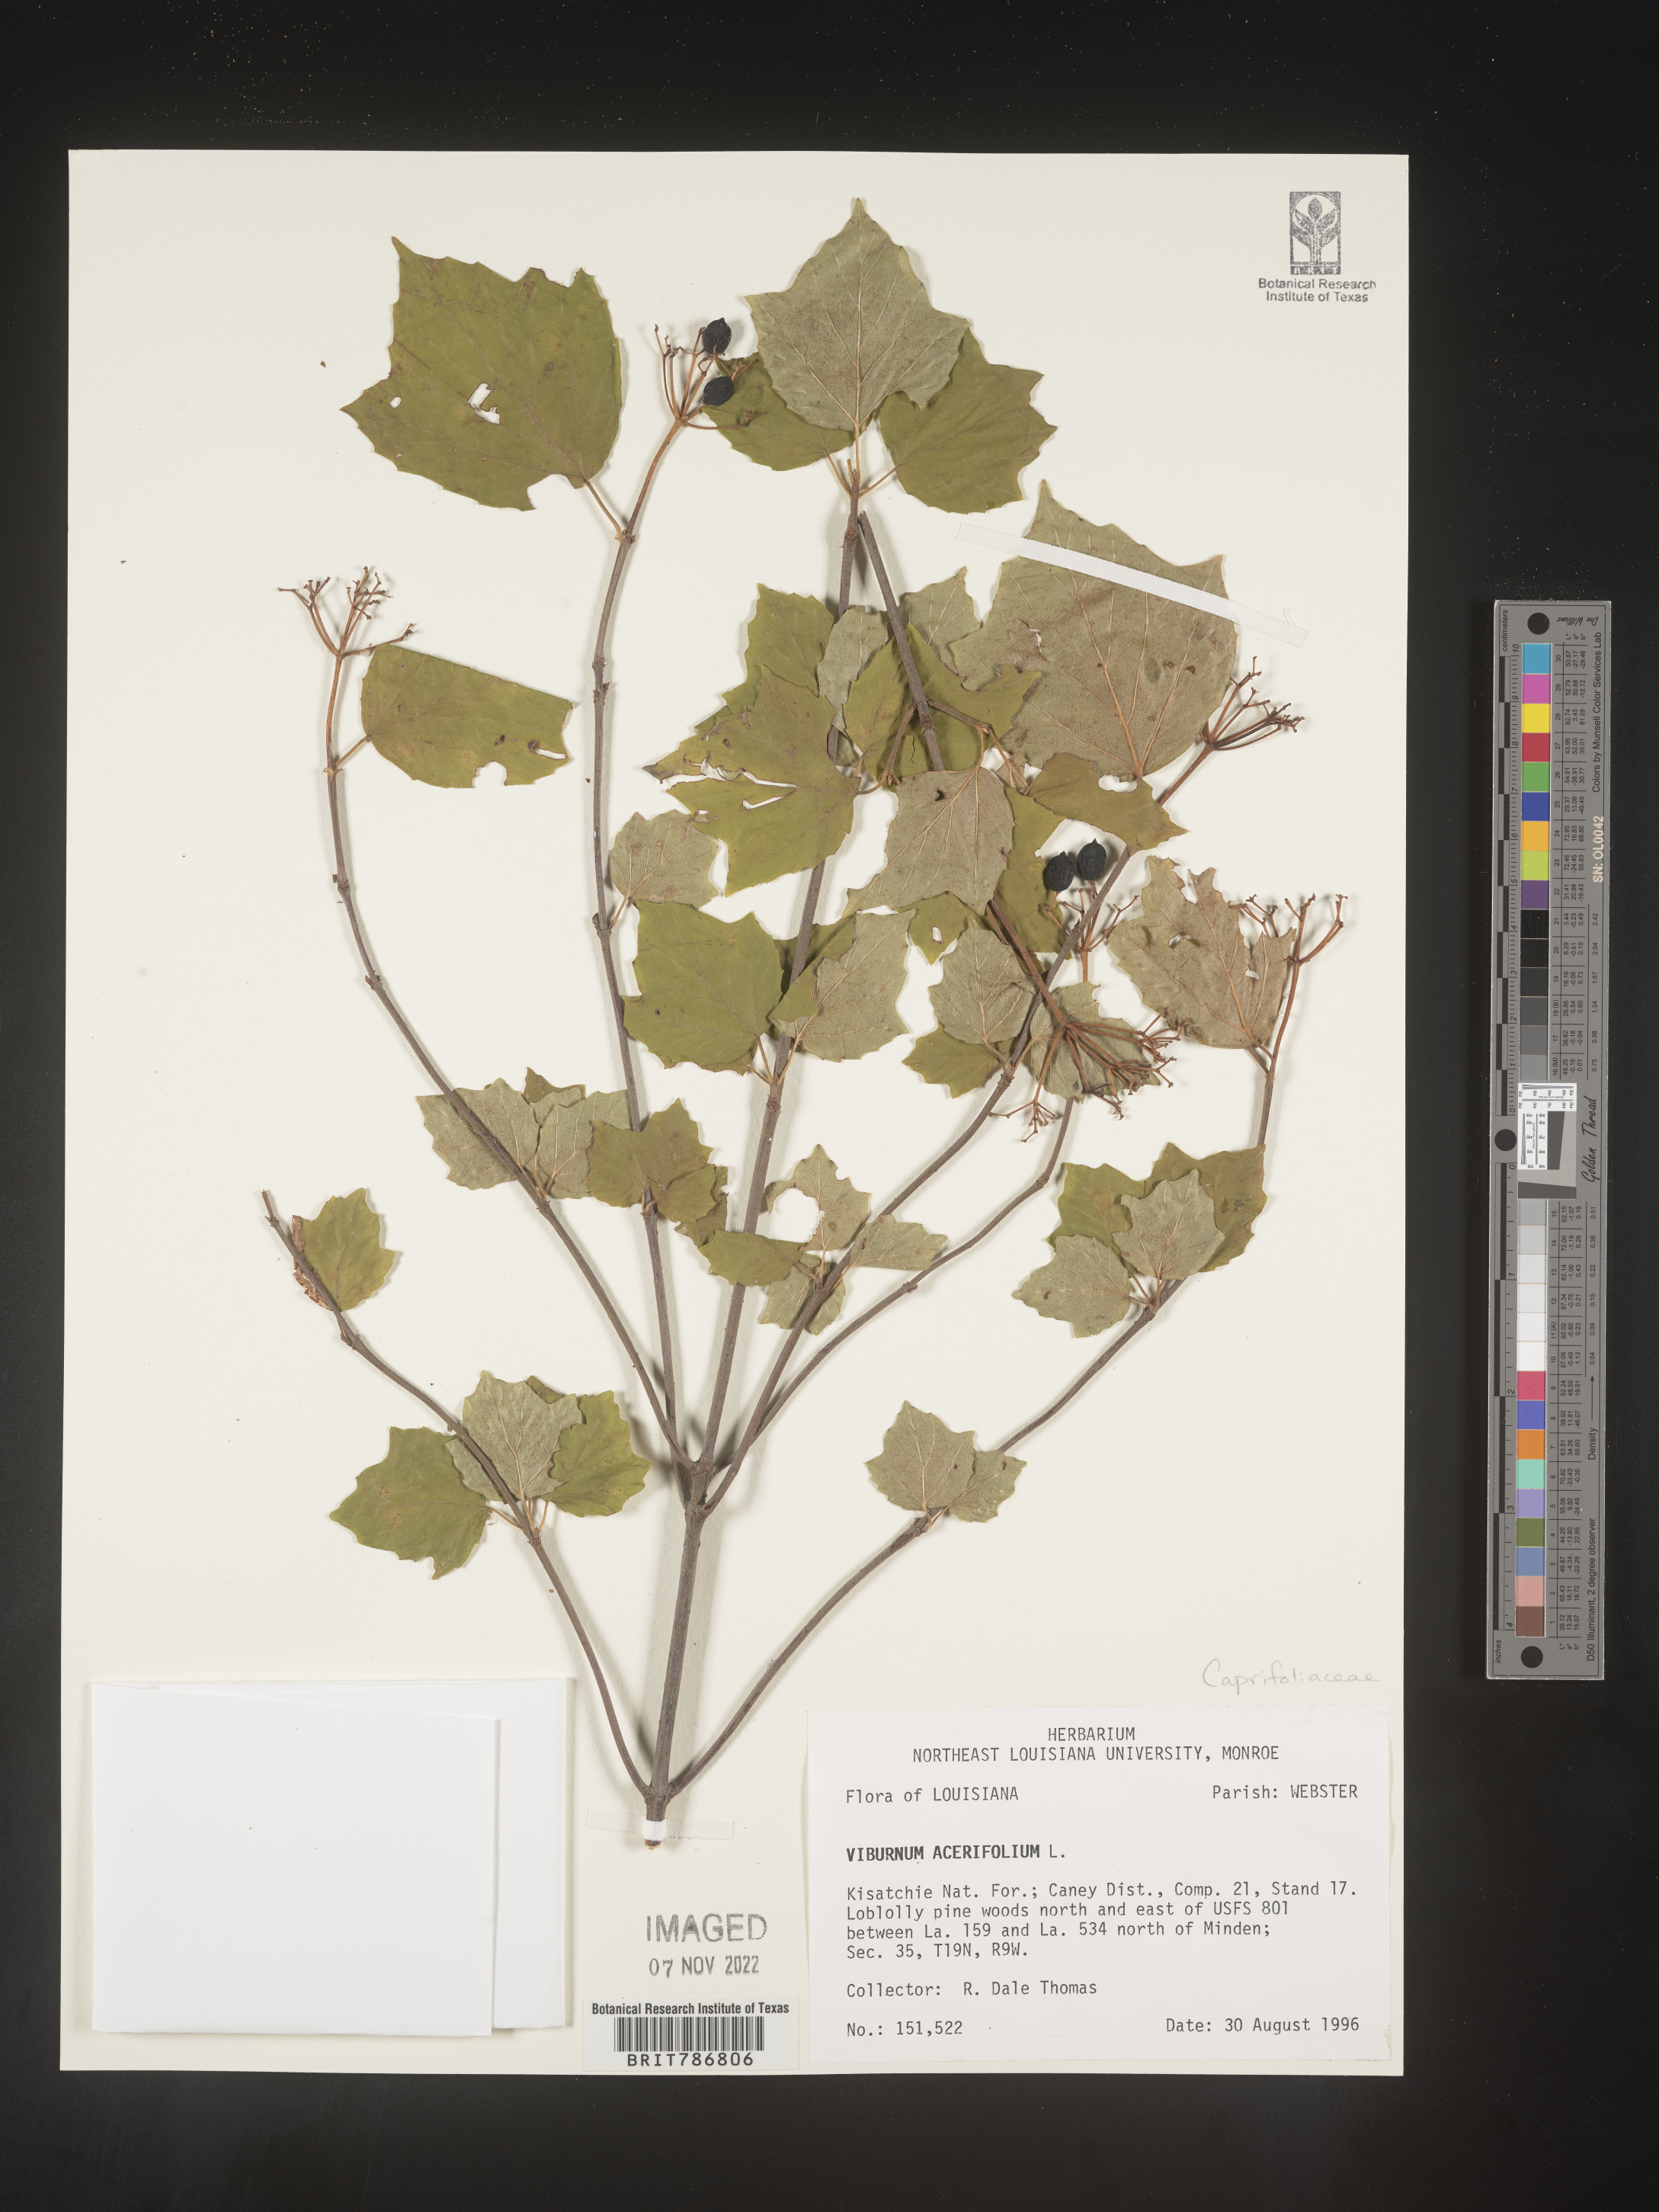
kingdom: Plantae
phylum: Tracheophyta
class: Magnoliopsida
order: Dipsacales
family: Viburnaceae
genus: Viburnum
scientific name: Viburnum acerifolium
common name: Dockmackie
